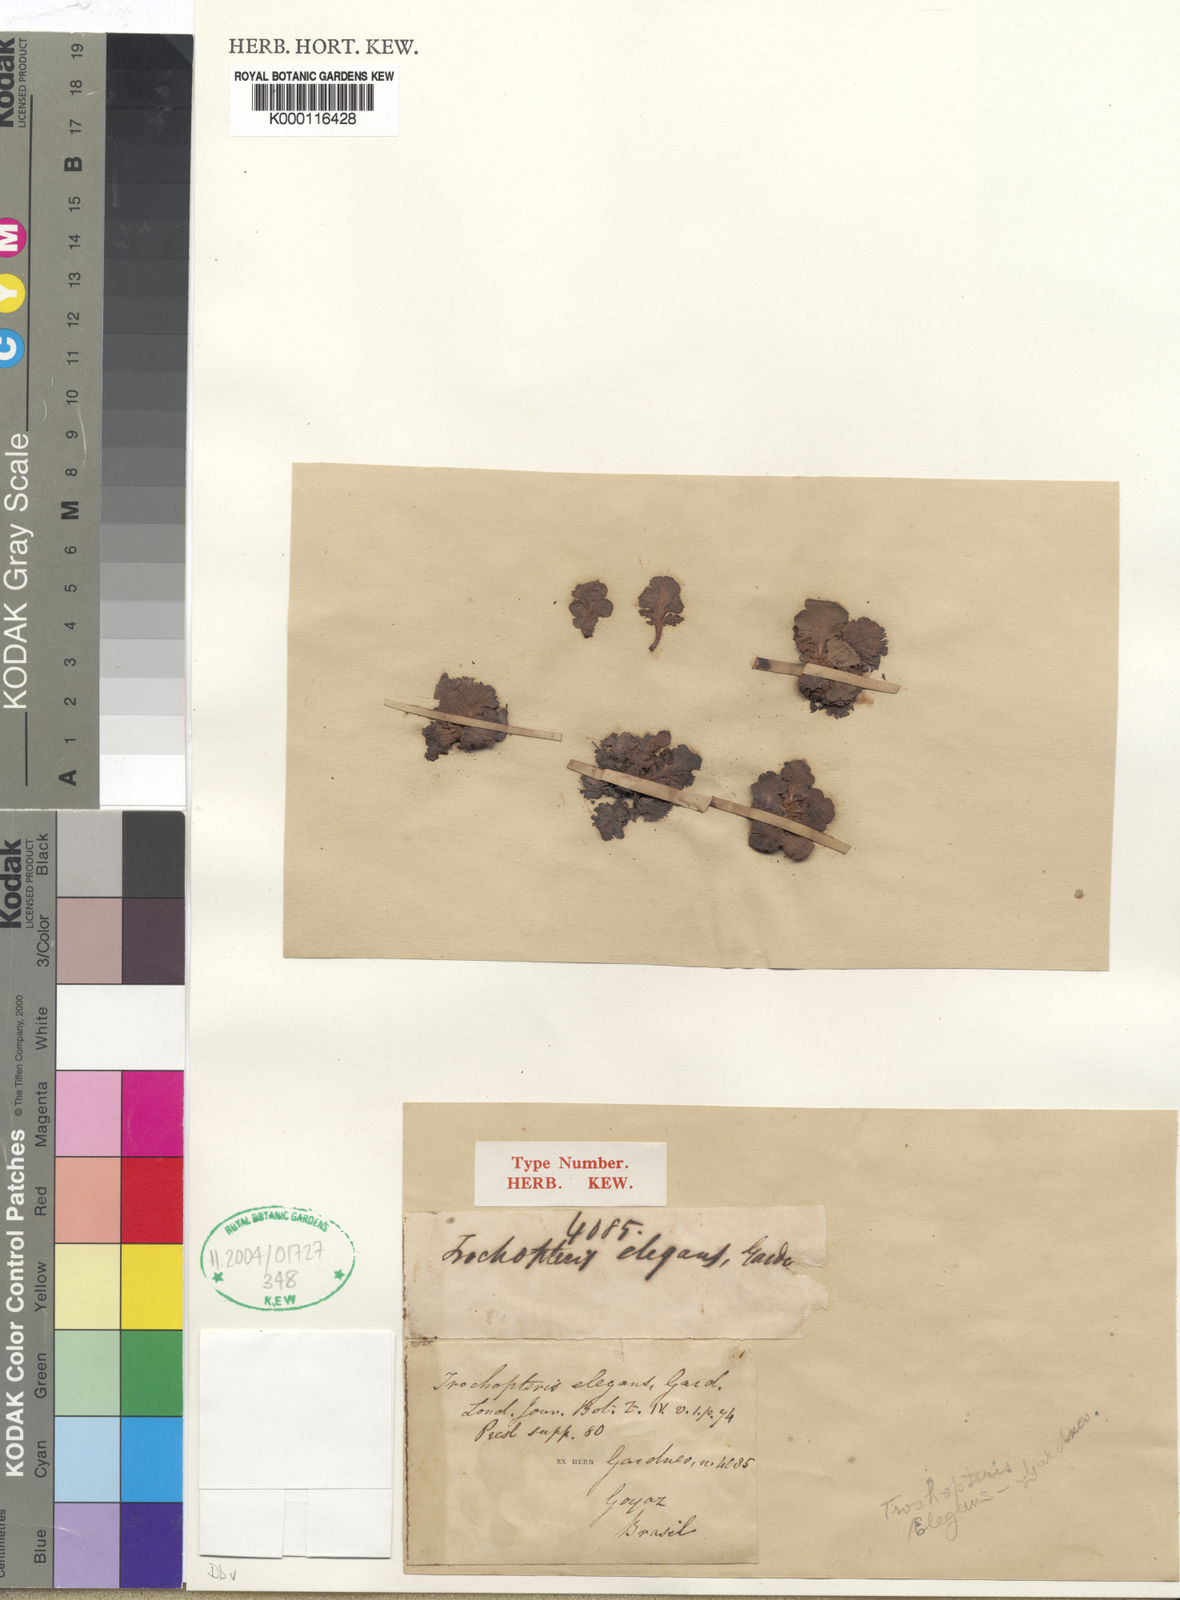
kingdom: Plantae
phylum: Tracheophyta
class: Polypodiopsida
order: Schizaeales
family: Anemiaceae
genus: Anemia
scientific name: Anemia elegans
